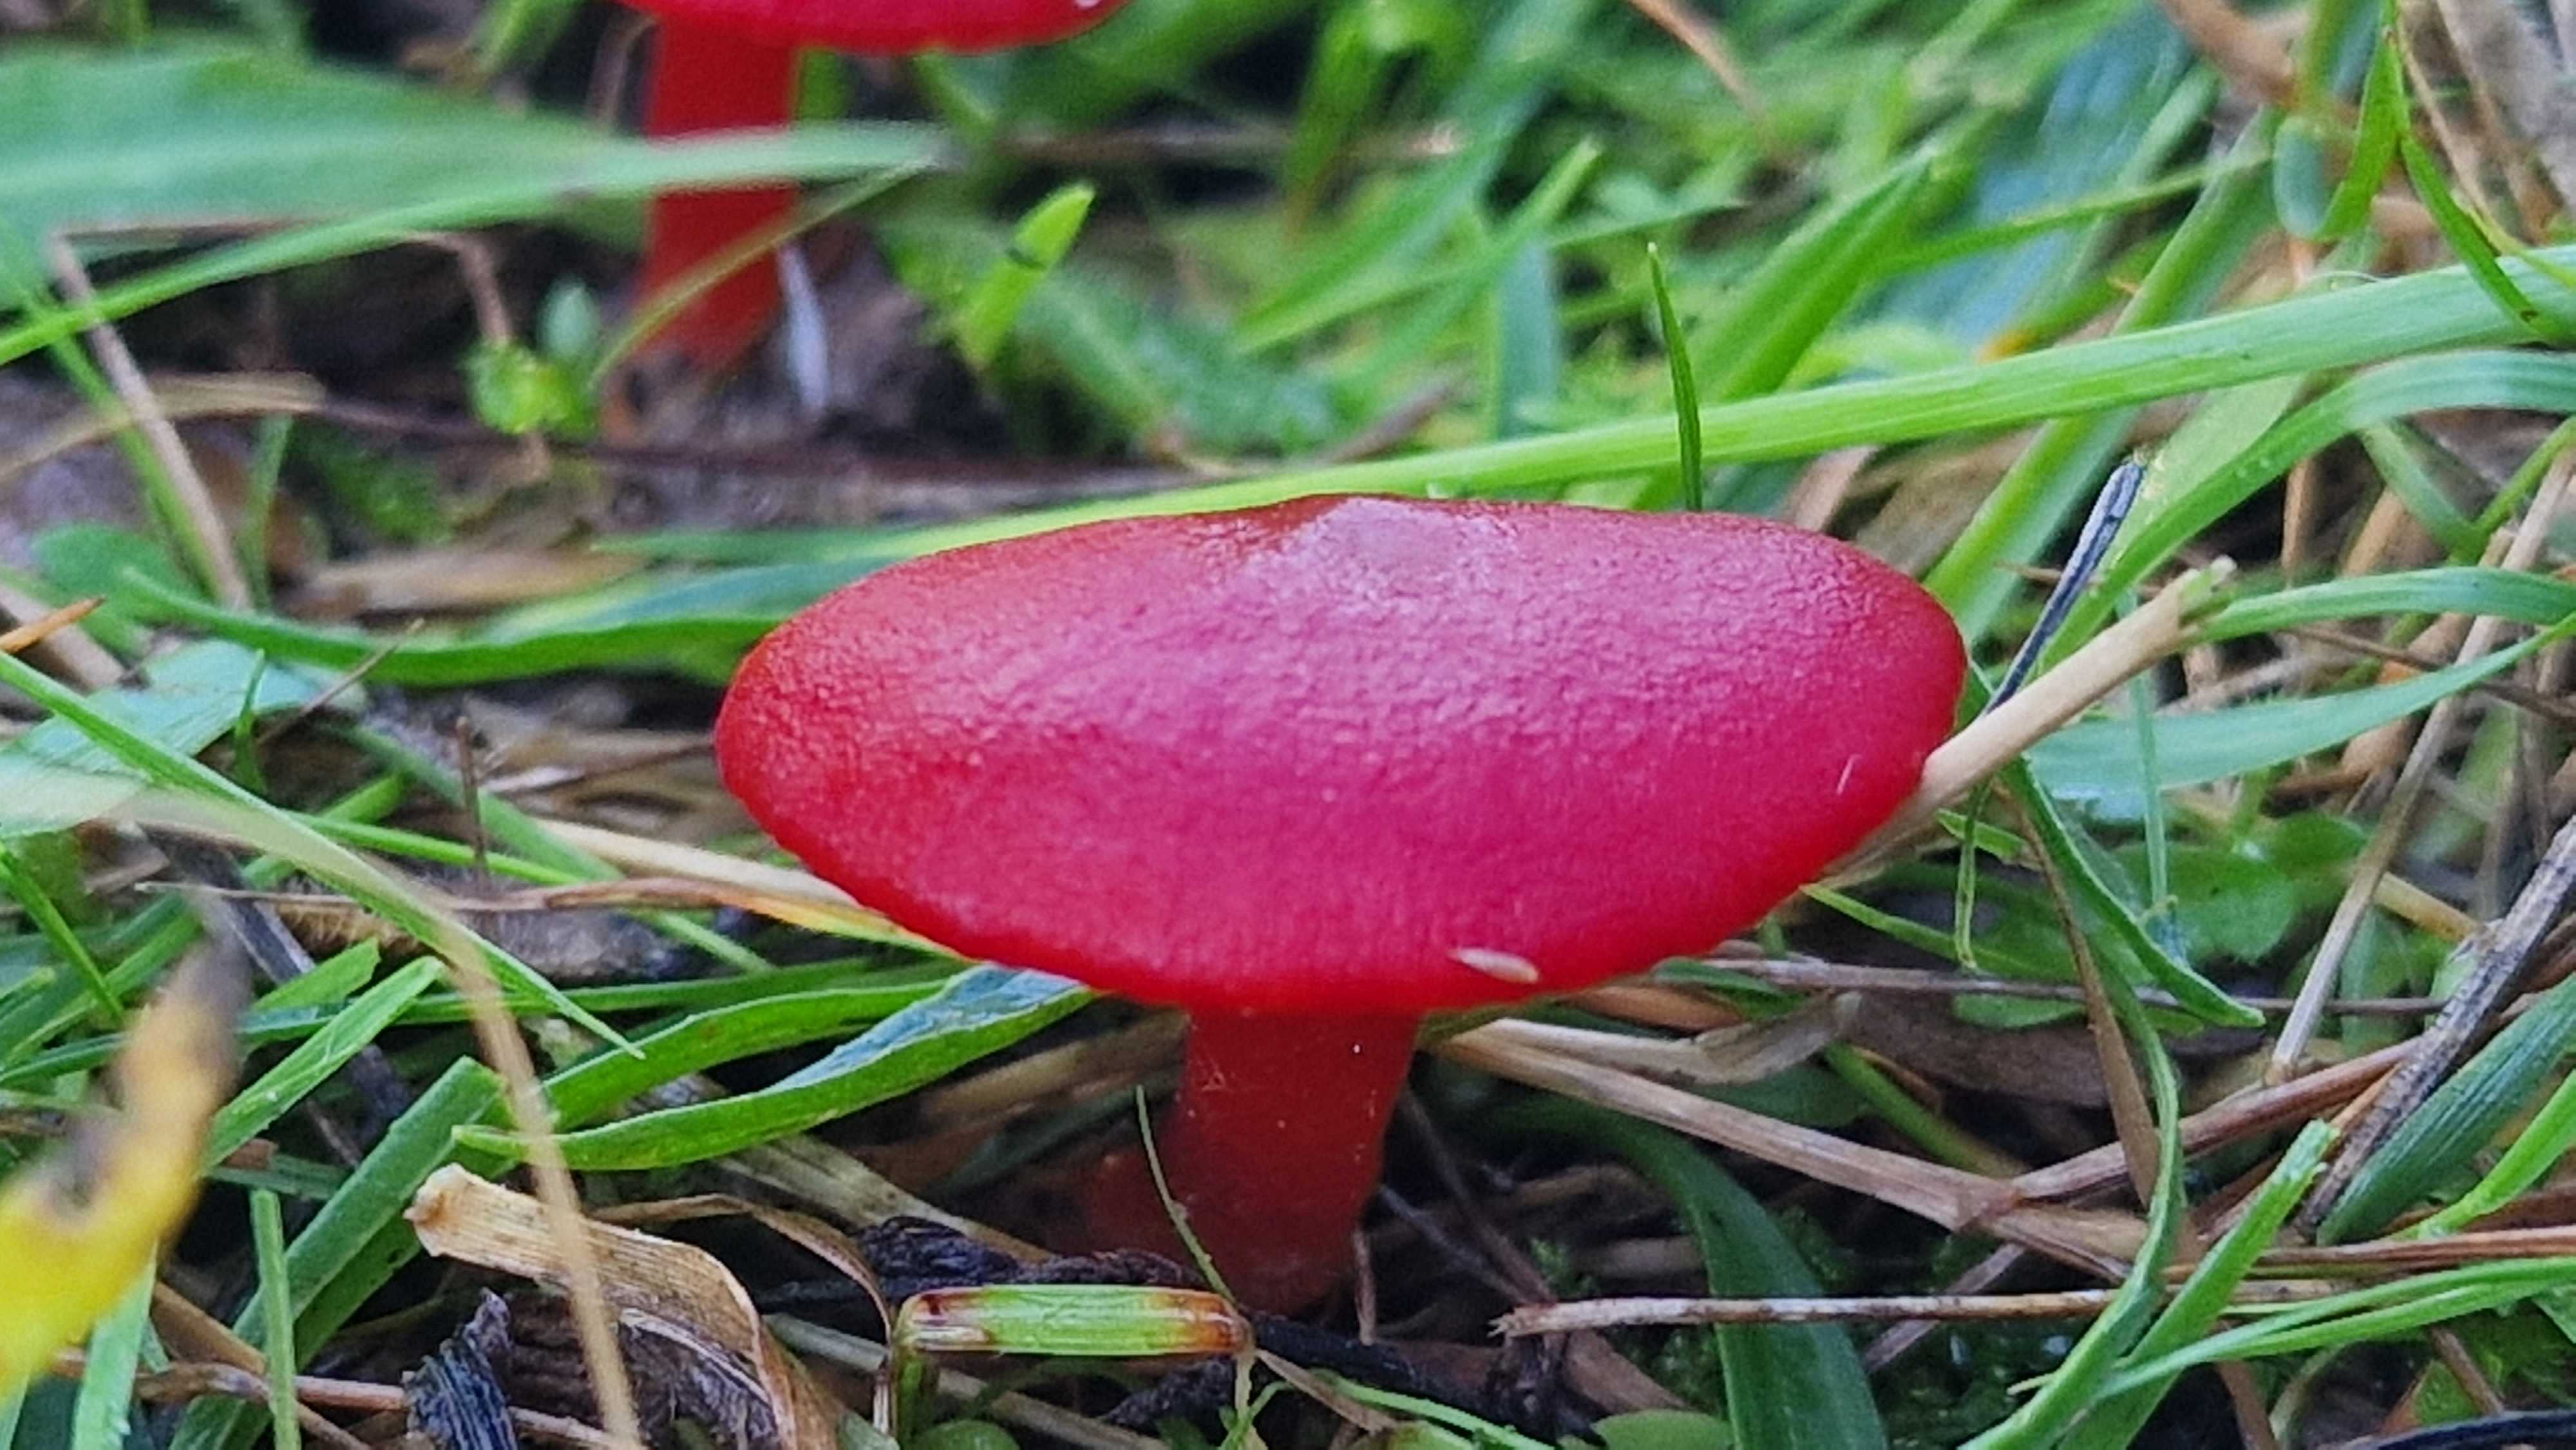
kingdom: Fungi
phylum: Basidiomycota
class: Agaricomycetes
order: Agaricales
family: Hygrophoraceae
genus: Hygrocybe
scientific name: Hygrocybe coccinea
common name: cinnober-vokshat
